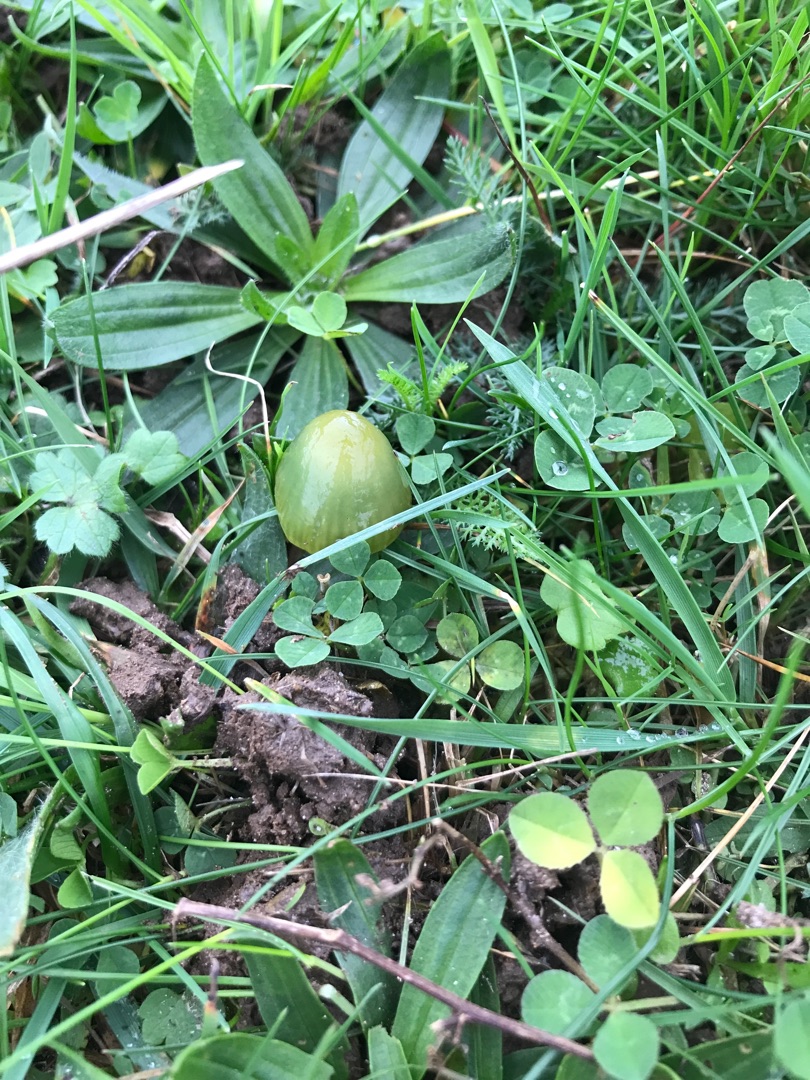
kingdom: Fungi
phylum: Basidiomycota
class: Agaricomycetes
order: Agaricales
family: Hygrophoraceae
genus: Gliophorus
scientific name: Gliophorus psittacinus
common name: Papegøje-vokshat
